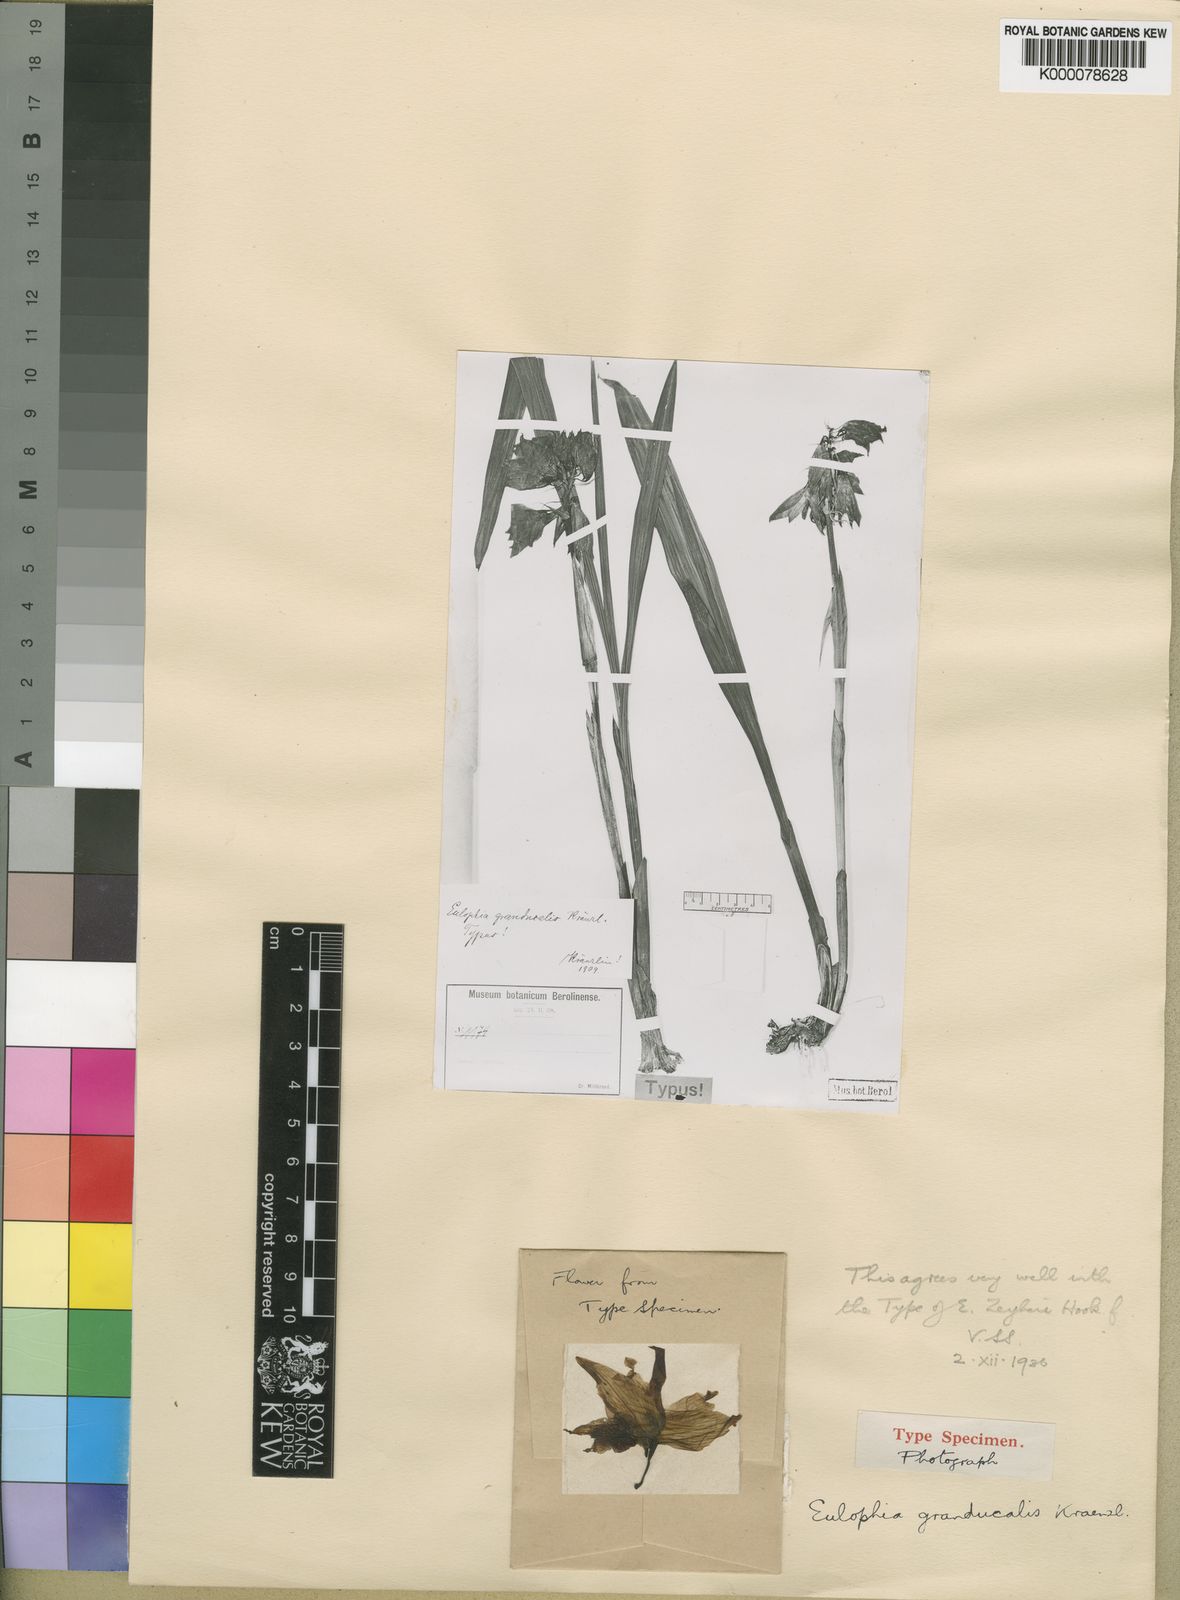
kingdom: Plantae
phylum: Tracheophyta
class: Liliopsida
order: Asparagales
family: Orchidaceae
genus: Eulophia
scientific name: Eulophia mechowii
